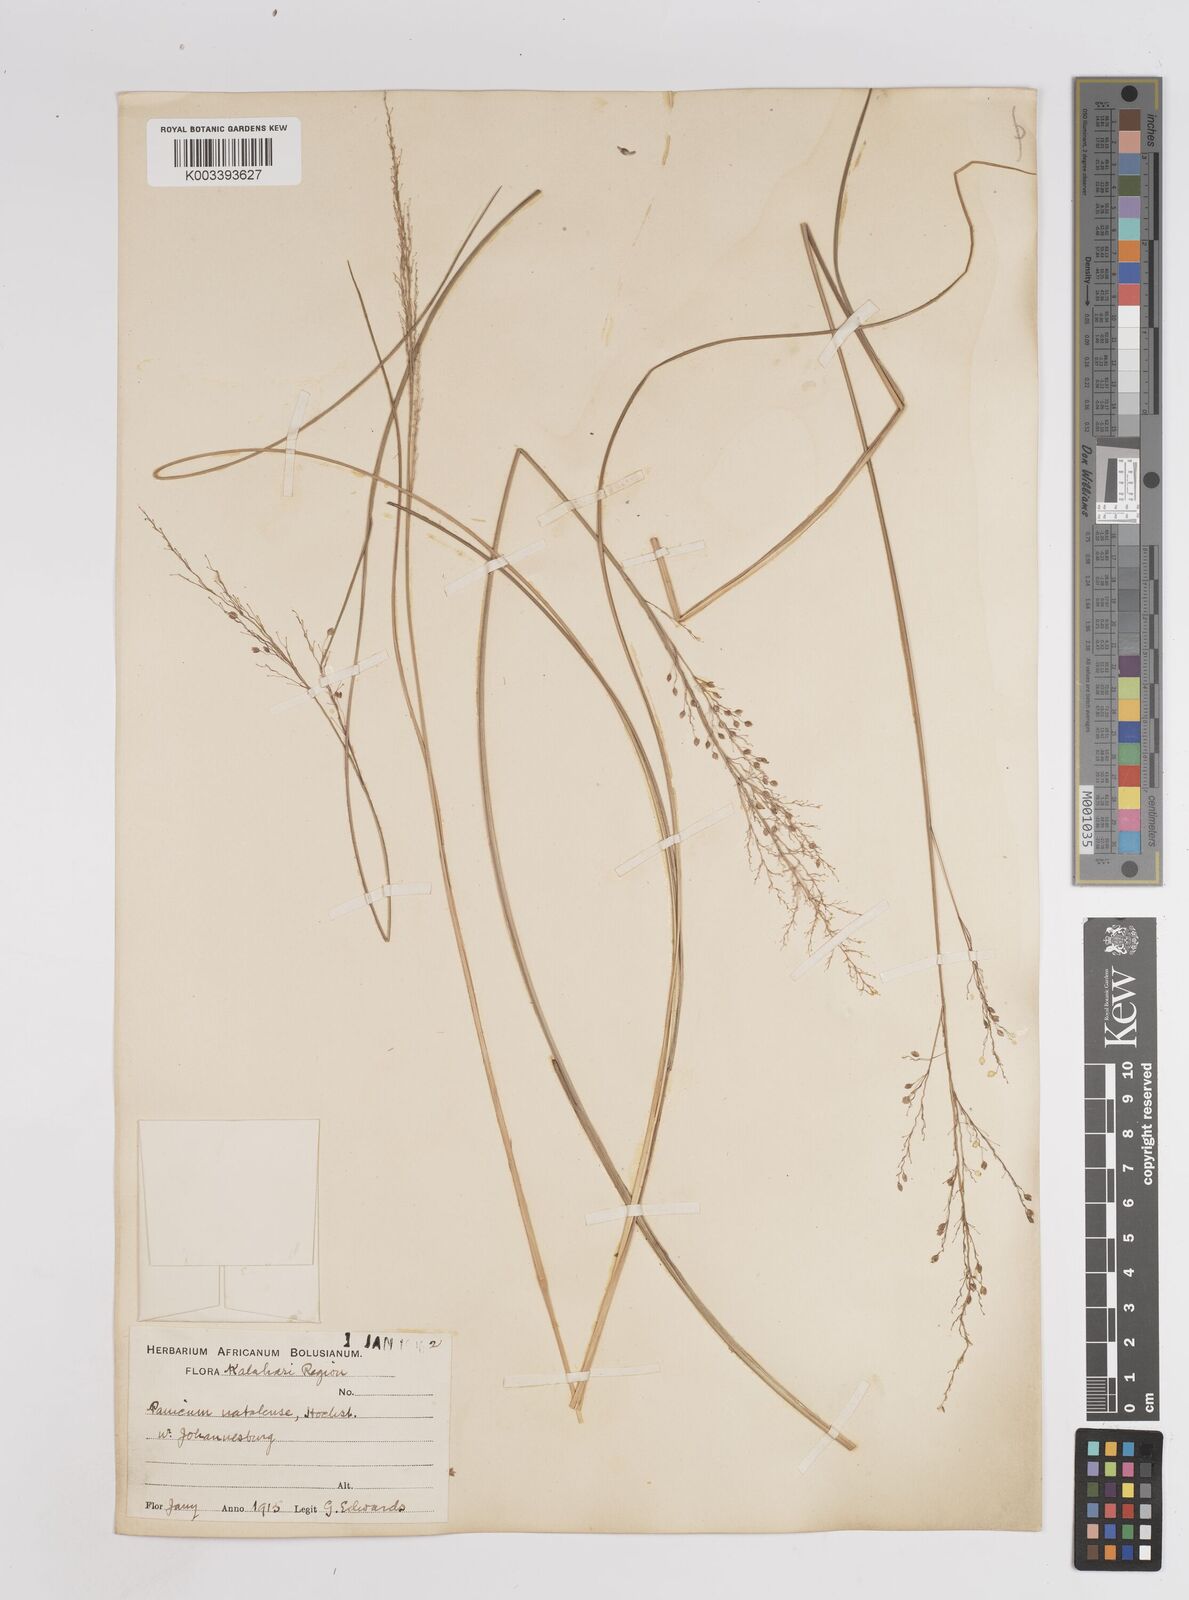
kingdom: Plantae
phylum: Tracheophyta
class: Liliopsida
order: Poales
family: Poaceae
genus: Trichanthecium
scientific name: Trichanthecium natalense
